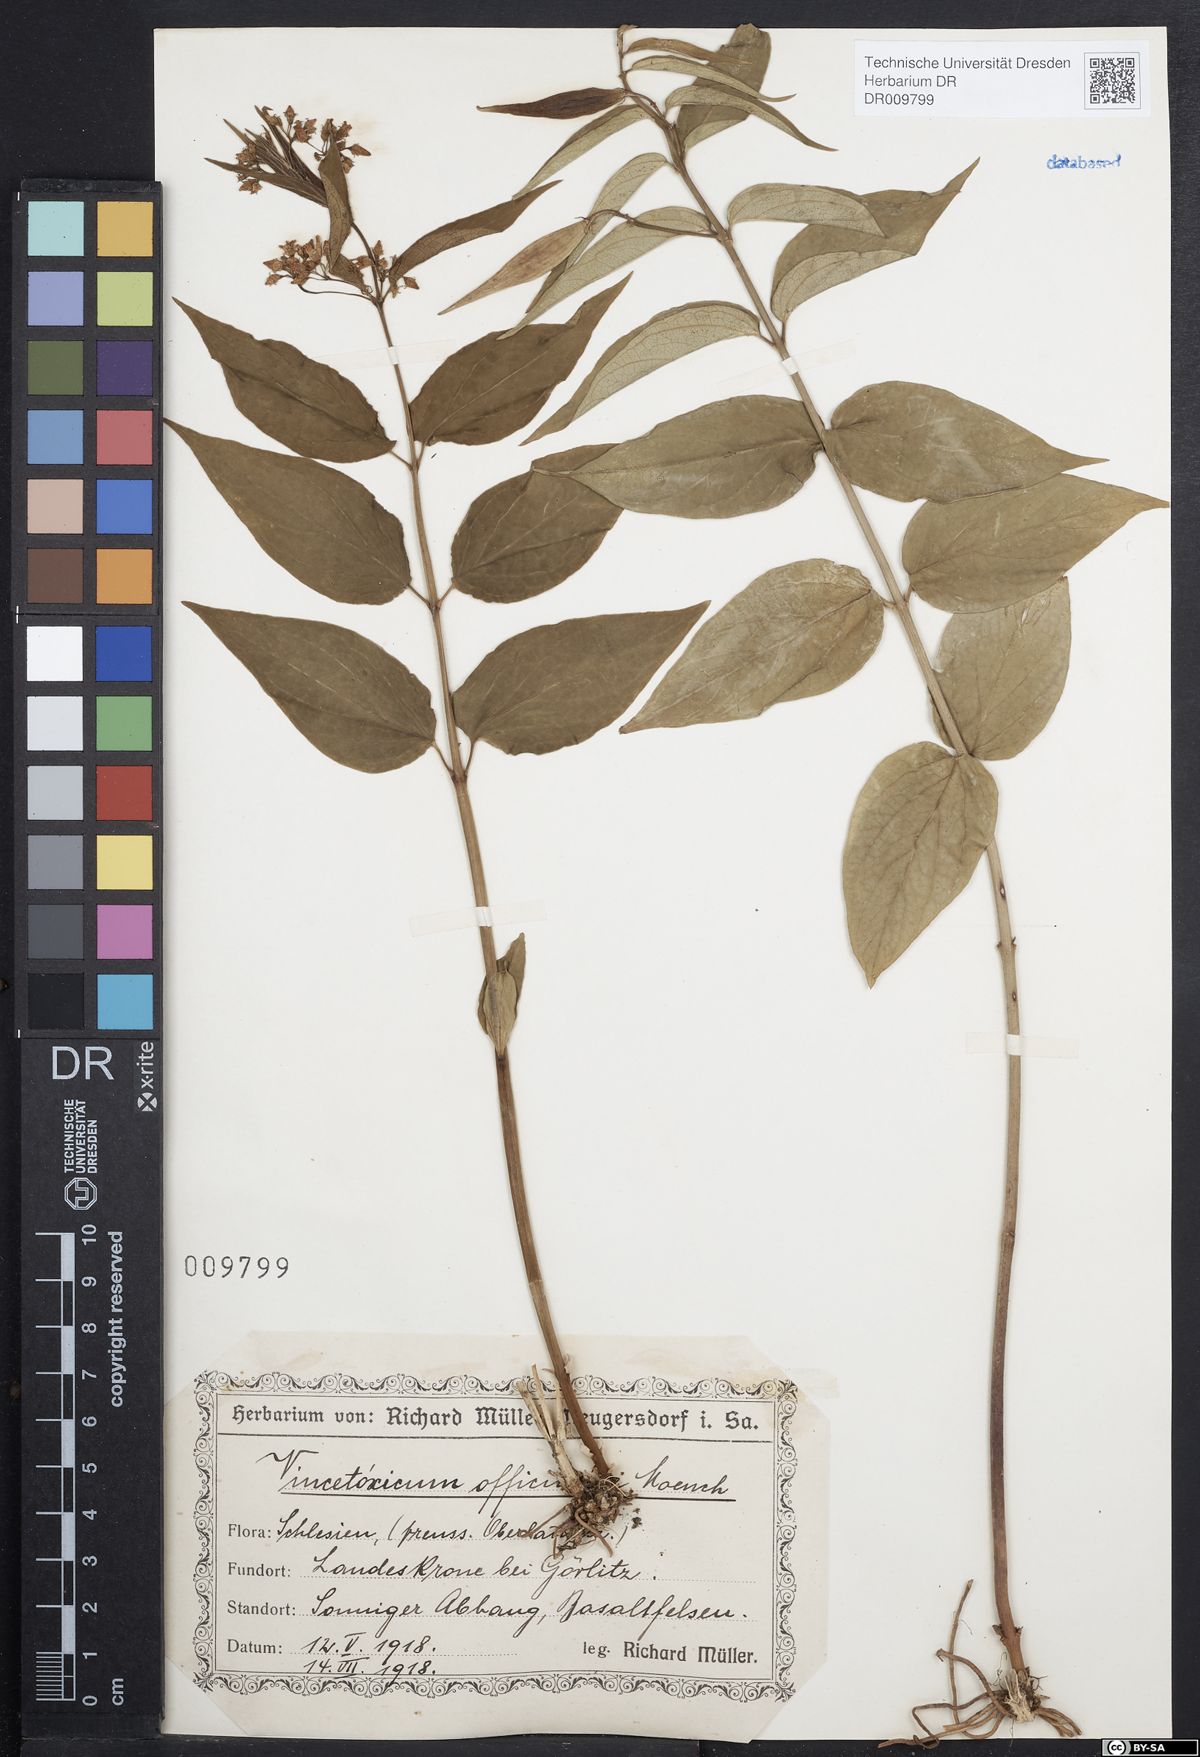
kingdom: Plantae
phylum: Tracheophyta
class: Magnoliopsida
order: Gentianales
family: Apocynaceae
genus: Vincetoxicum
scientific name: Vincetoxicum hirundinaria
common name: White swallowwort
